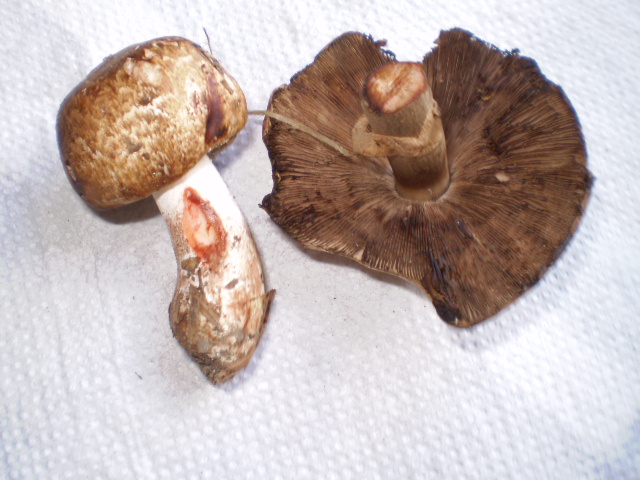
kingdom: Fungi
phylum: Basidiomycota
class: Agaricomycetes
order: Agaricales
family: Agaricaceae
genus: Agaricus
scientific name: Agaricus sylvaticus
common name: lille blod-champignon
